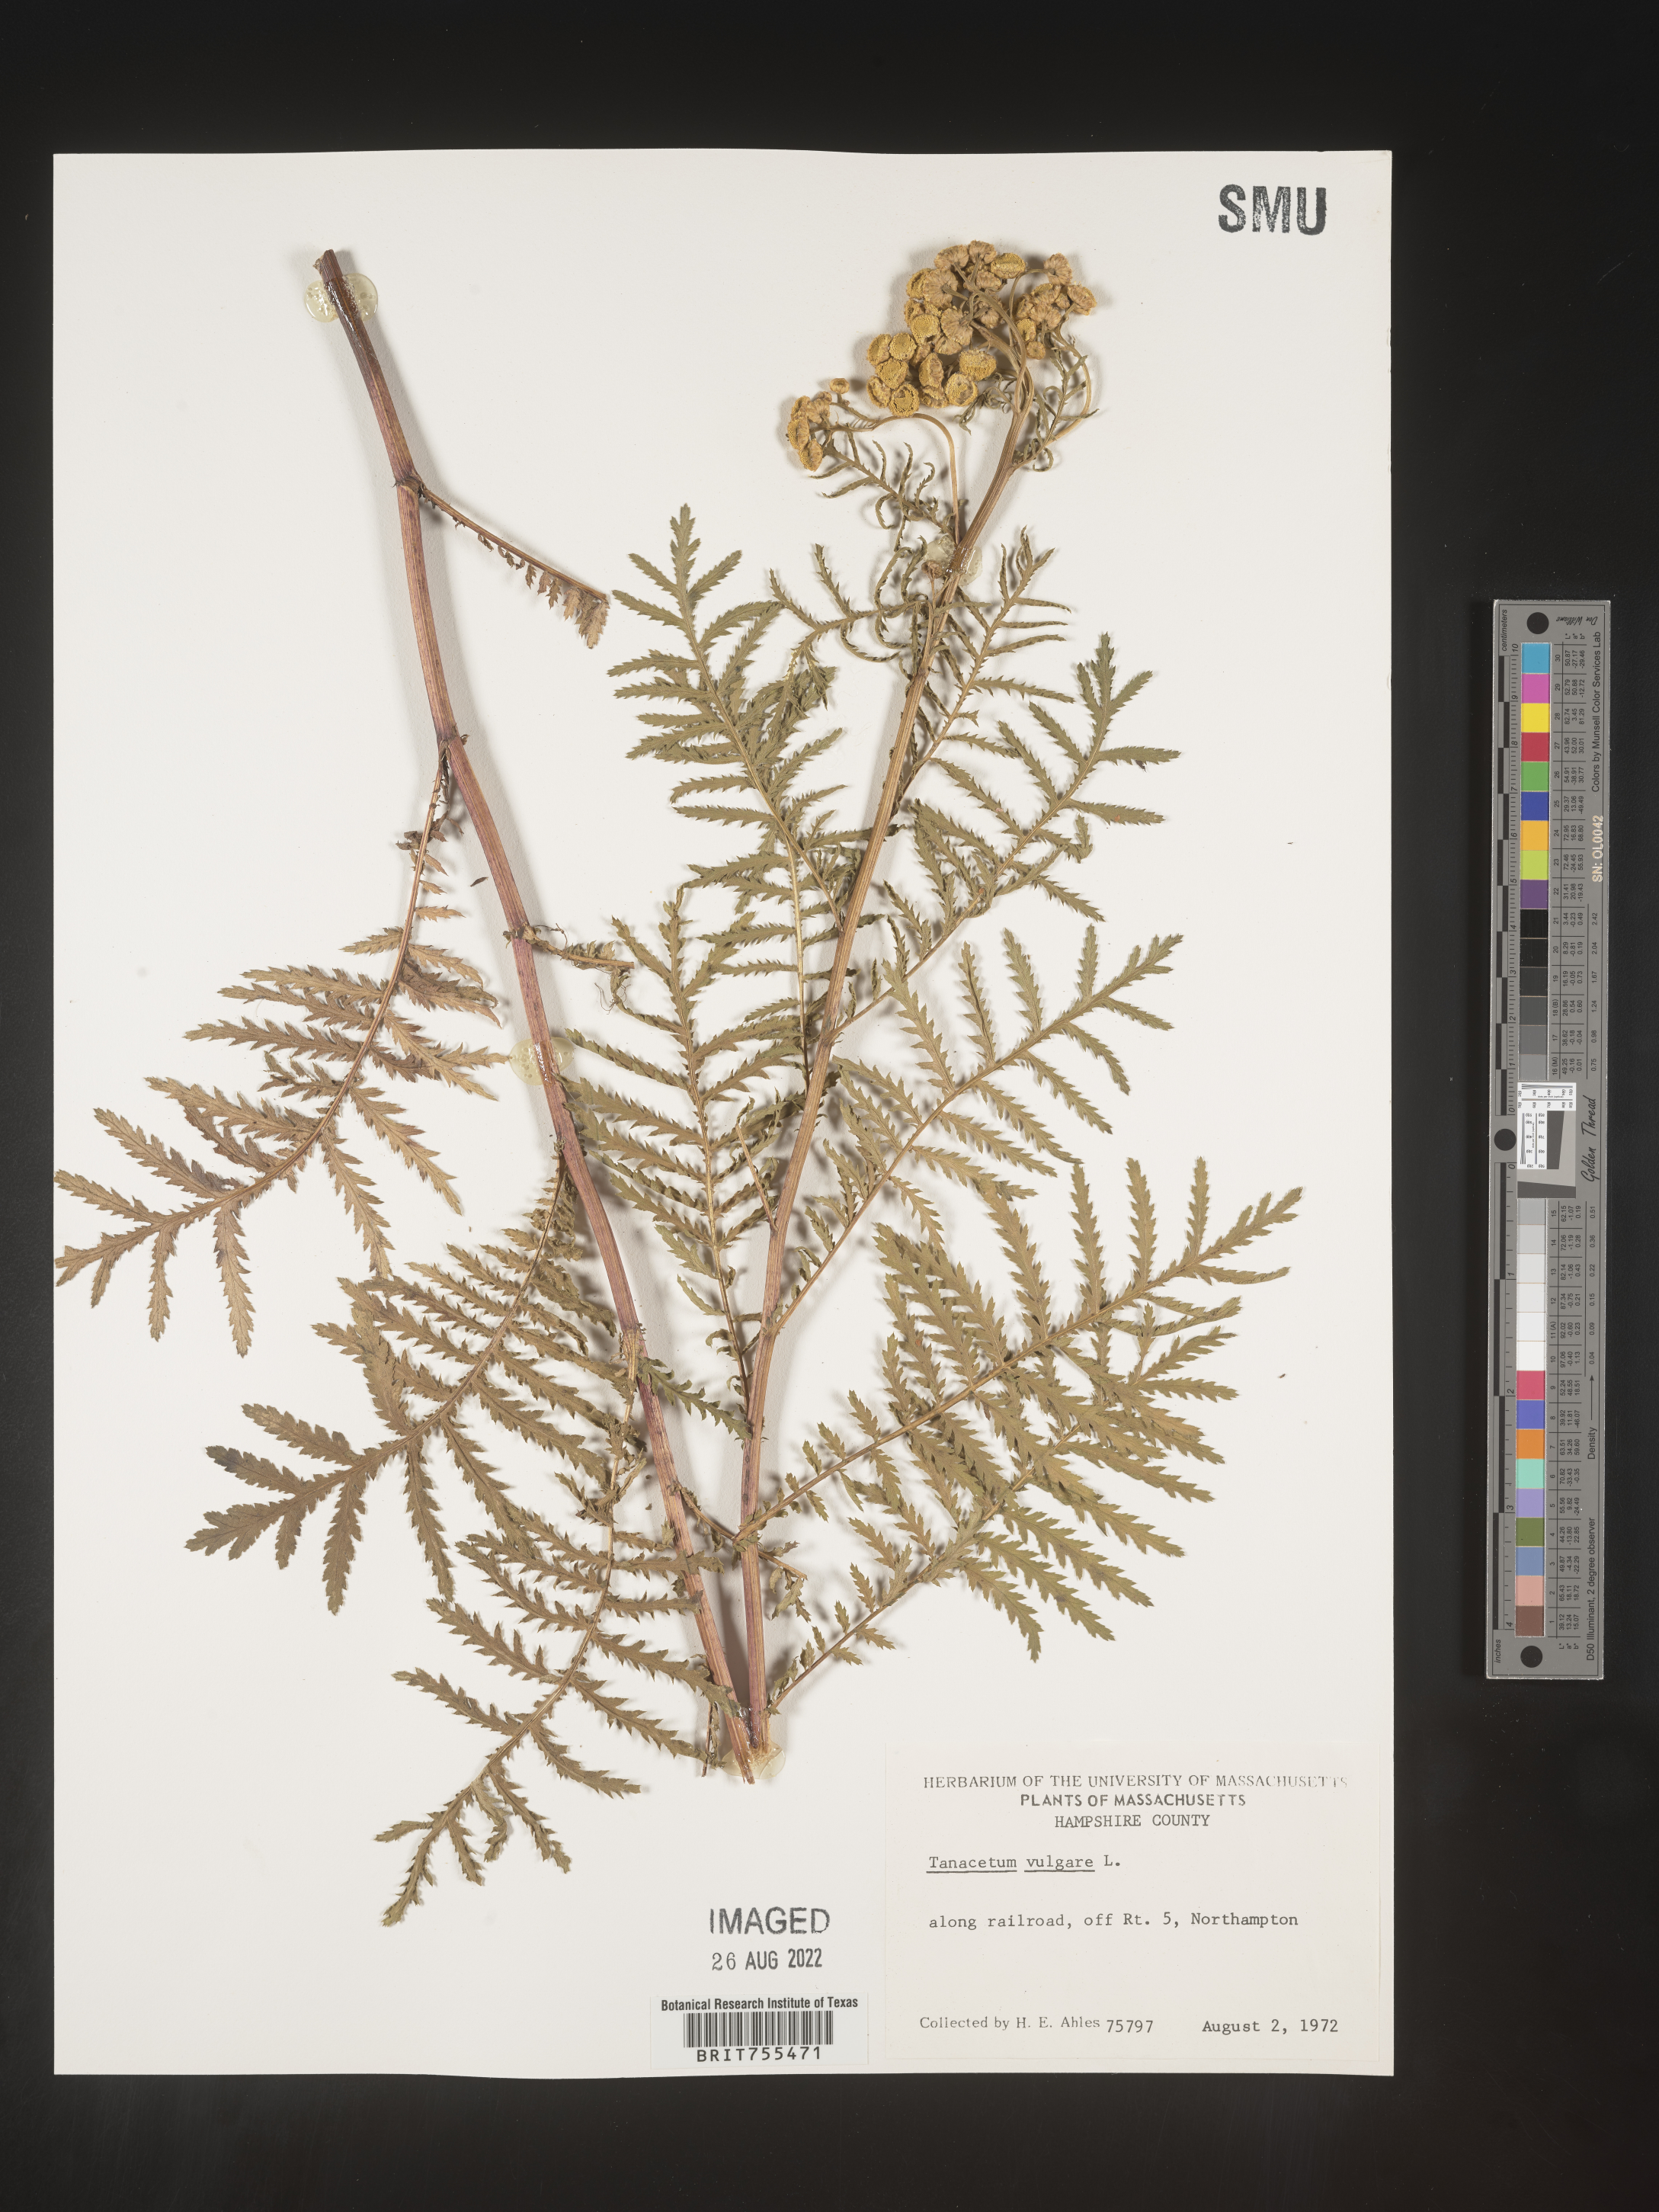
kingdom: Plantae
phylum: Tracheophyta
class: Magnoliopsida
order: Asterales
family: Asteraceae
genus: Tanacetum
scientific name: Tanacetum vulgare
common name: Common tansy
